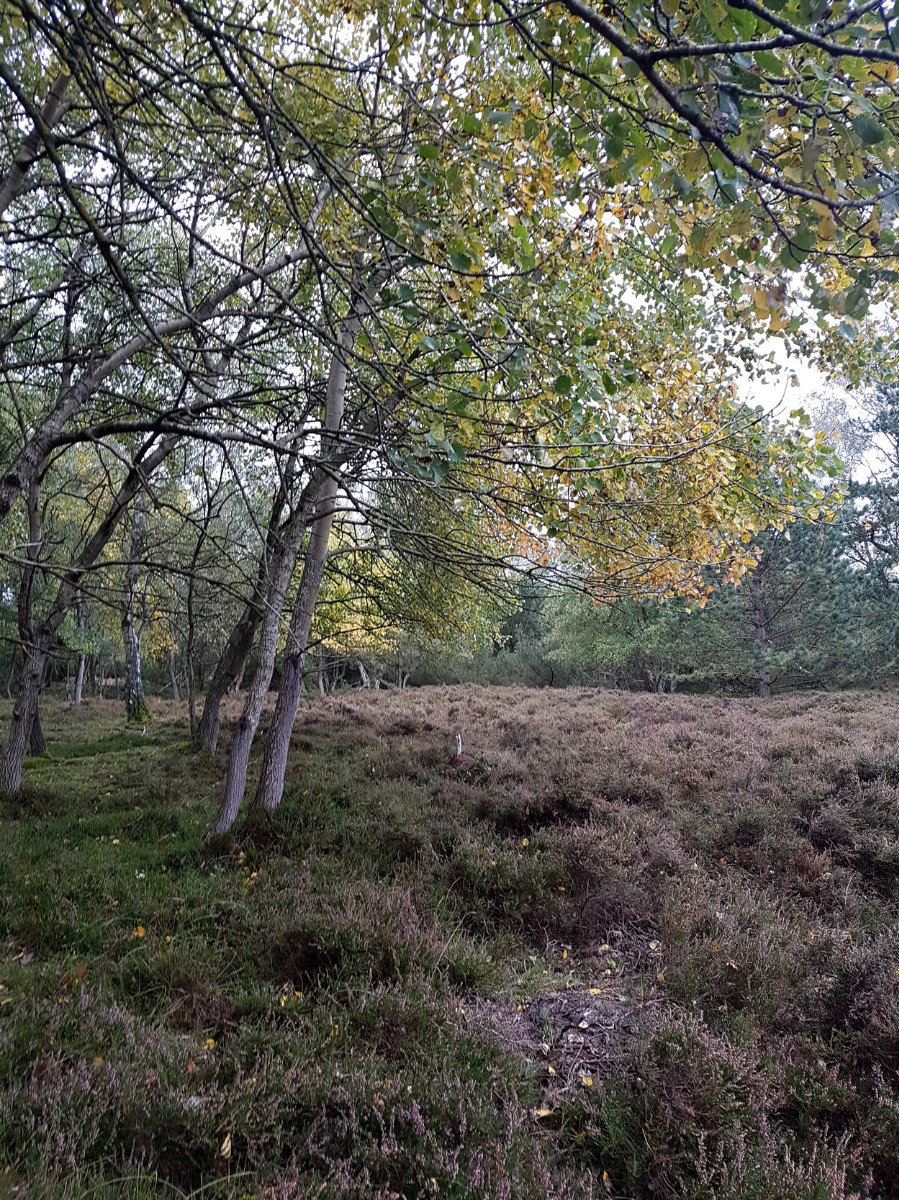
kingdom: Fungi
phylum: Basidiomycota
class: Agaricomycetes
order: Agaricales
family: Cortinariaceae
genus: Cortinarius
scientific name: Cortinarius trivialis
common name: Girdled webcap
